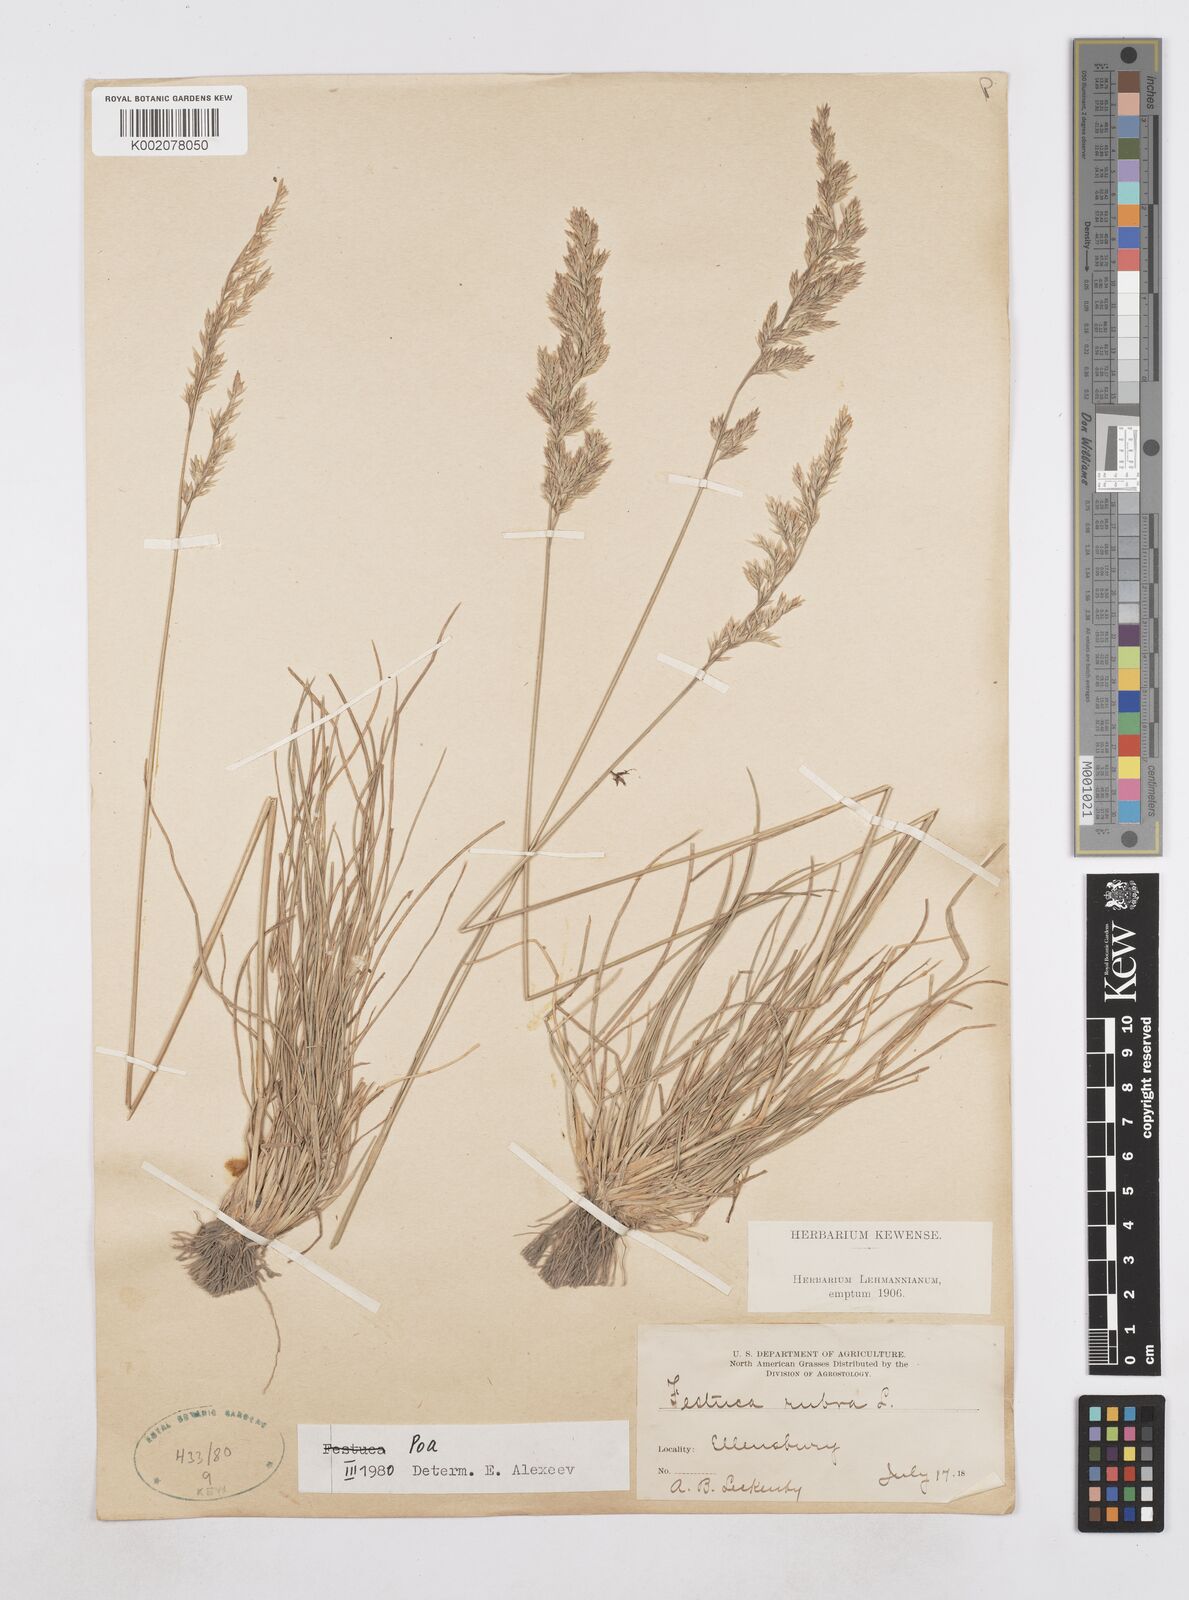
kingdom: Plantae
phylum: Tracheophyta
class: Liliopsida
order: Poales
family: Poaceae
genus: Poa
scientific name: Poa
